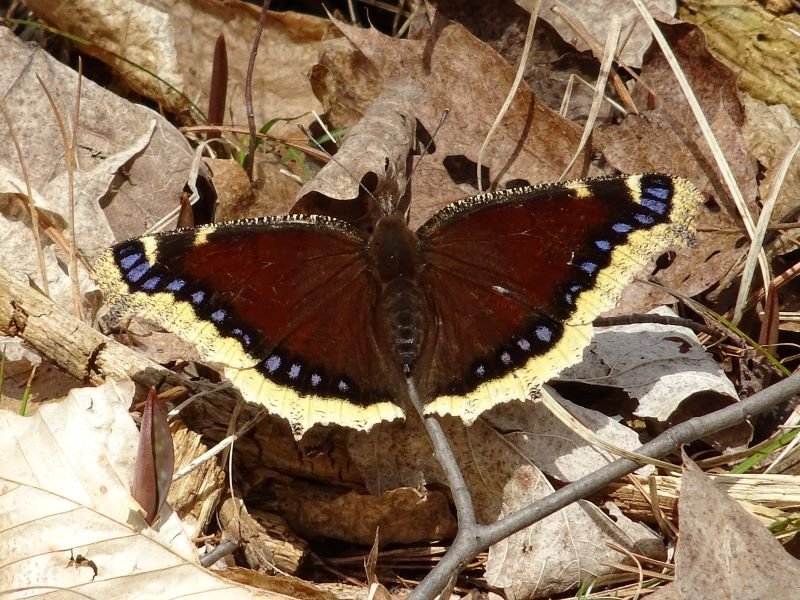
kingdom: Animalia
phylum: Arthropoda
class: Insecta
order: Lepidoptera
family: Nymphalidae
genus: Nymphalis
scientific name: Nymphalis antiopa
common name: Mourning Cloak
